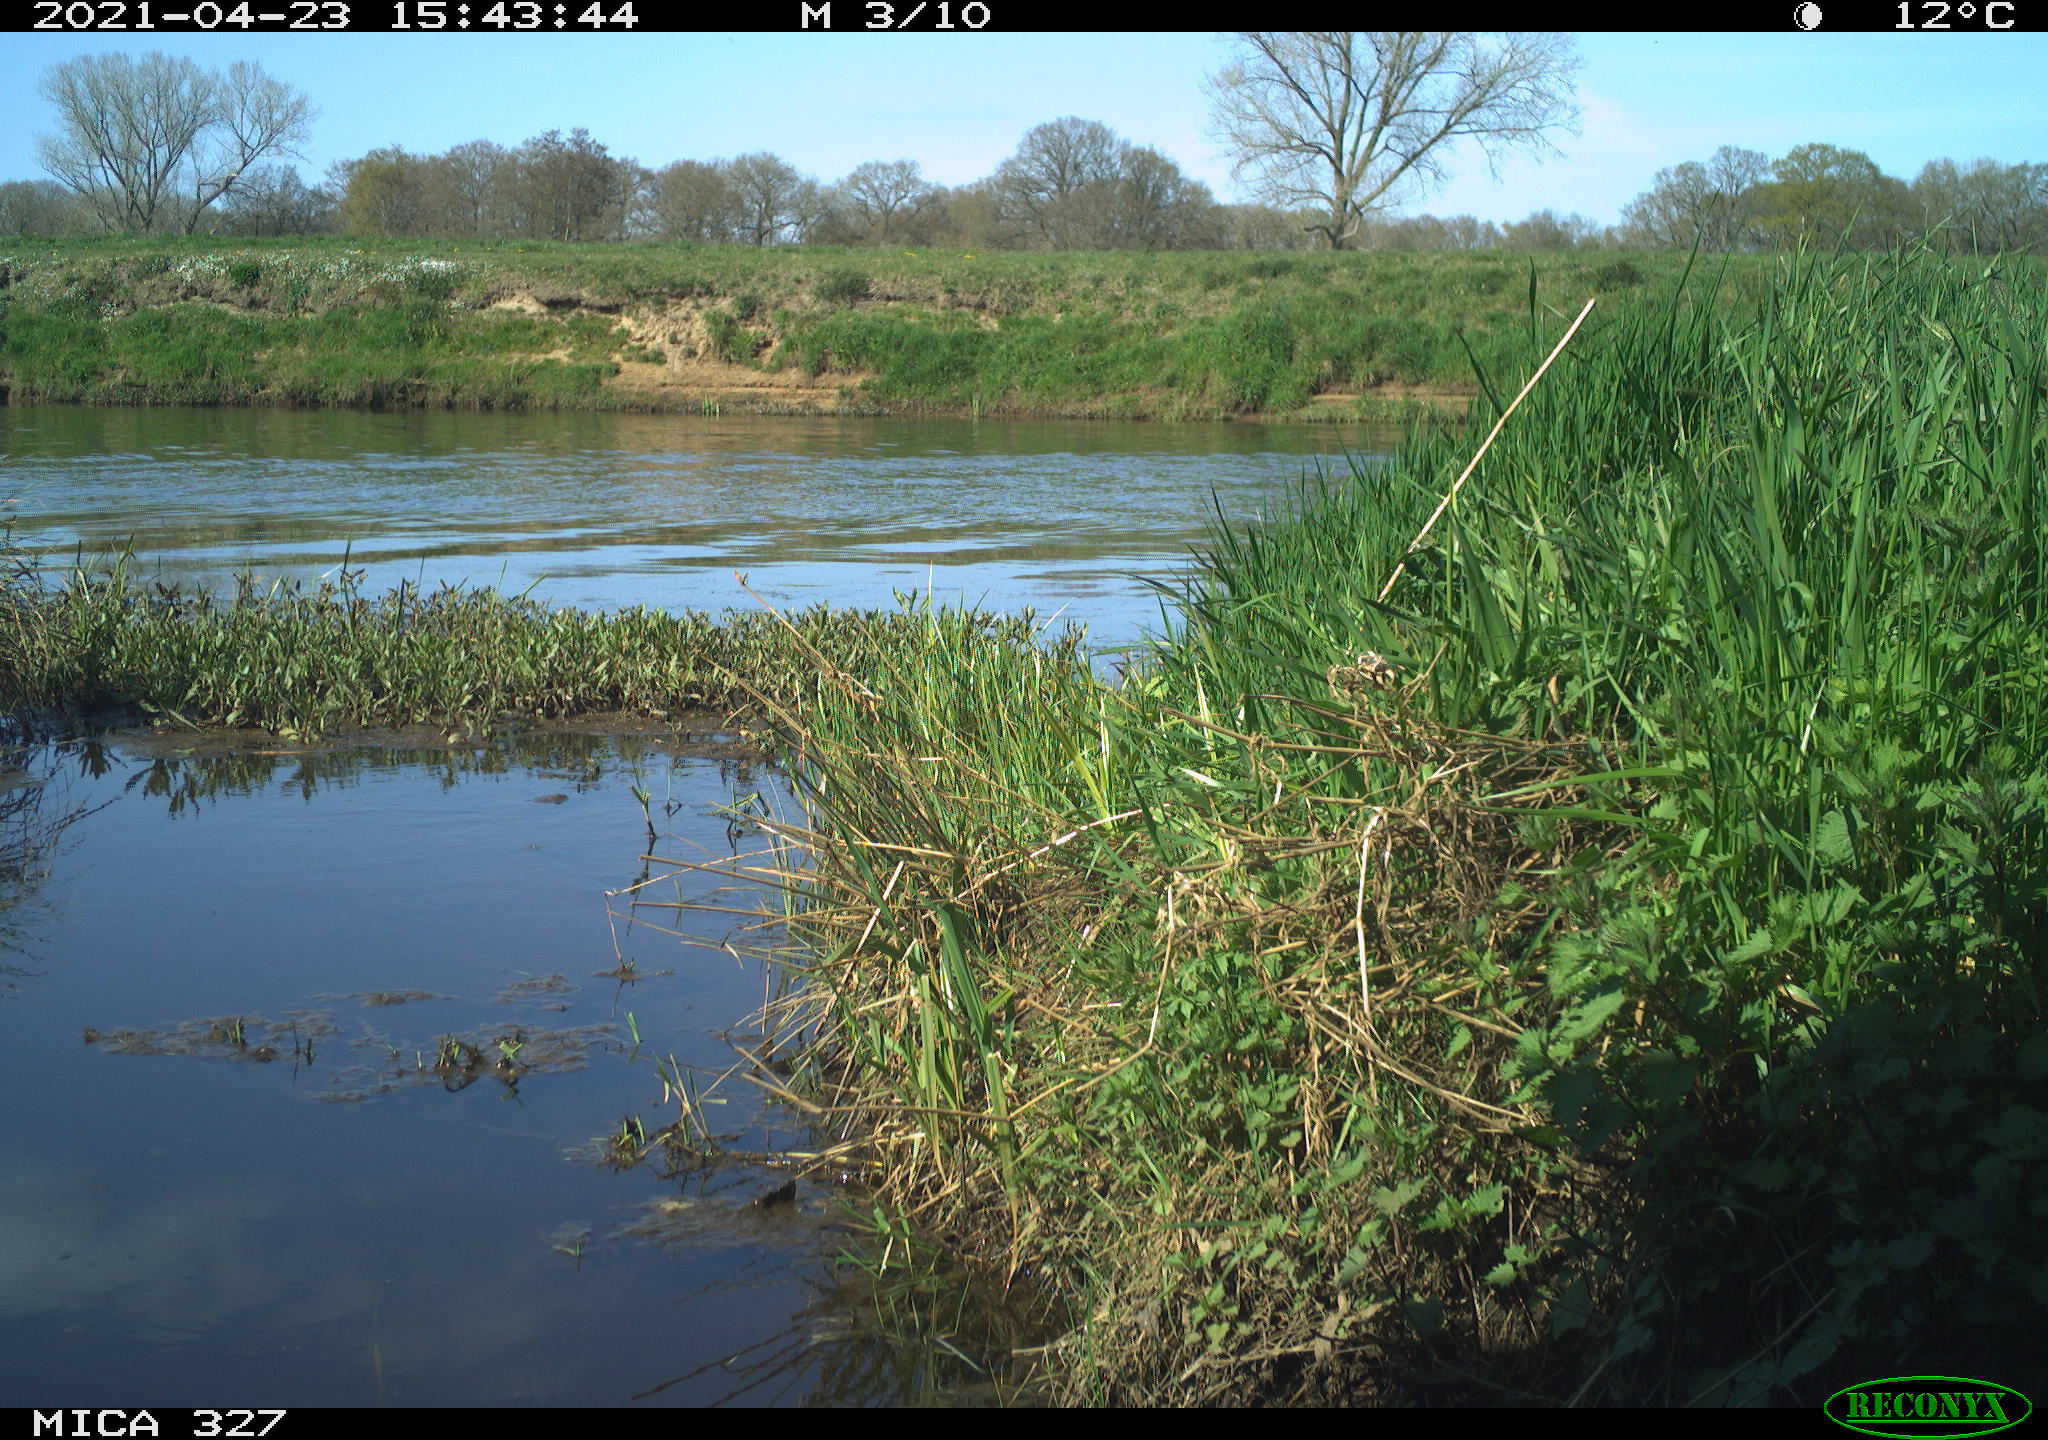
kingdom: Animalia
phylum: Chordata
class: Aves
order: Passeriformes
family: Corvidae
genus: Corvus
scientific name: Corvus corone
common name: Carrion crow
